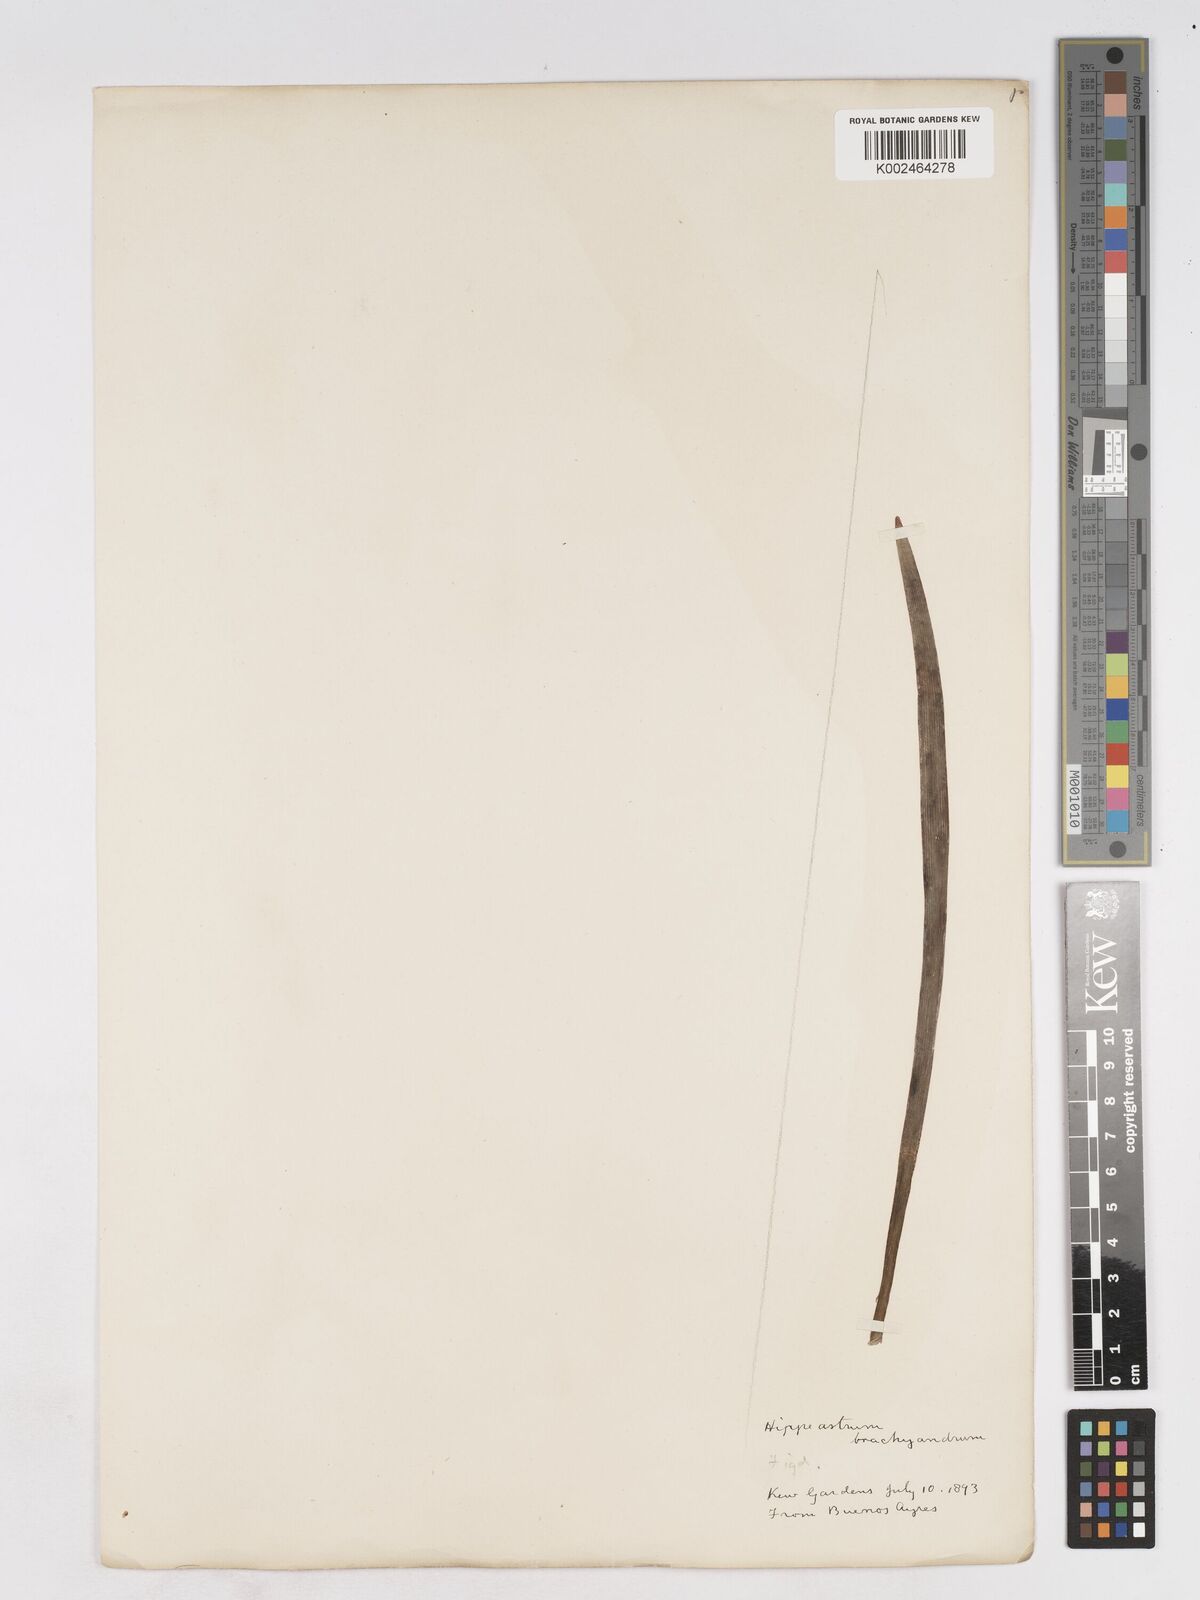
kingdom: Plantae
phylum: Tracheophyta
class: Liliopsida
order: Asparagales
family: Amaryllidaceae
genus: Zephyranthes
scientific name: Zephyranthes brachyandra
